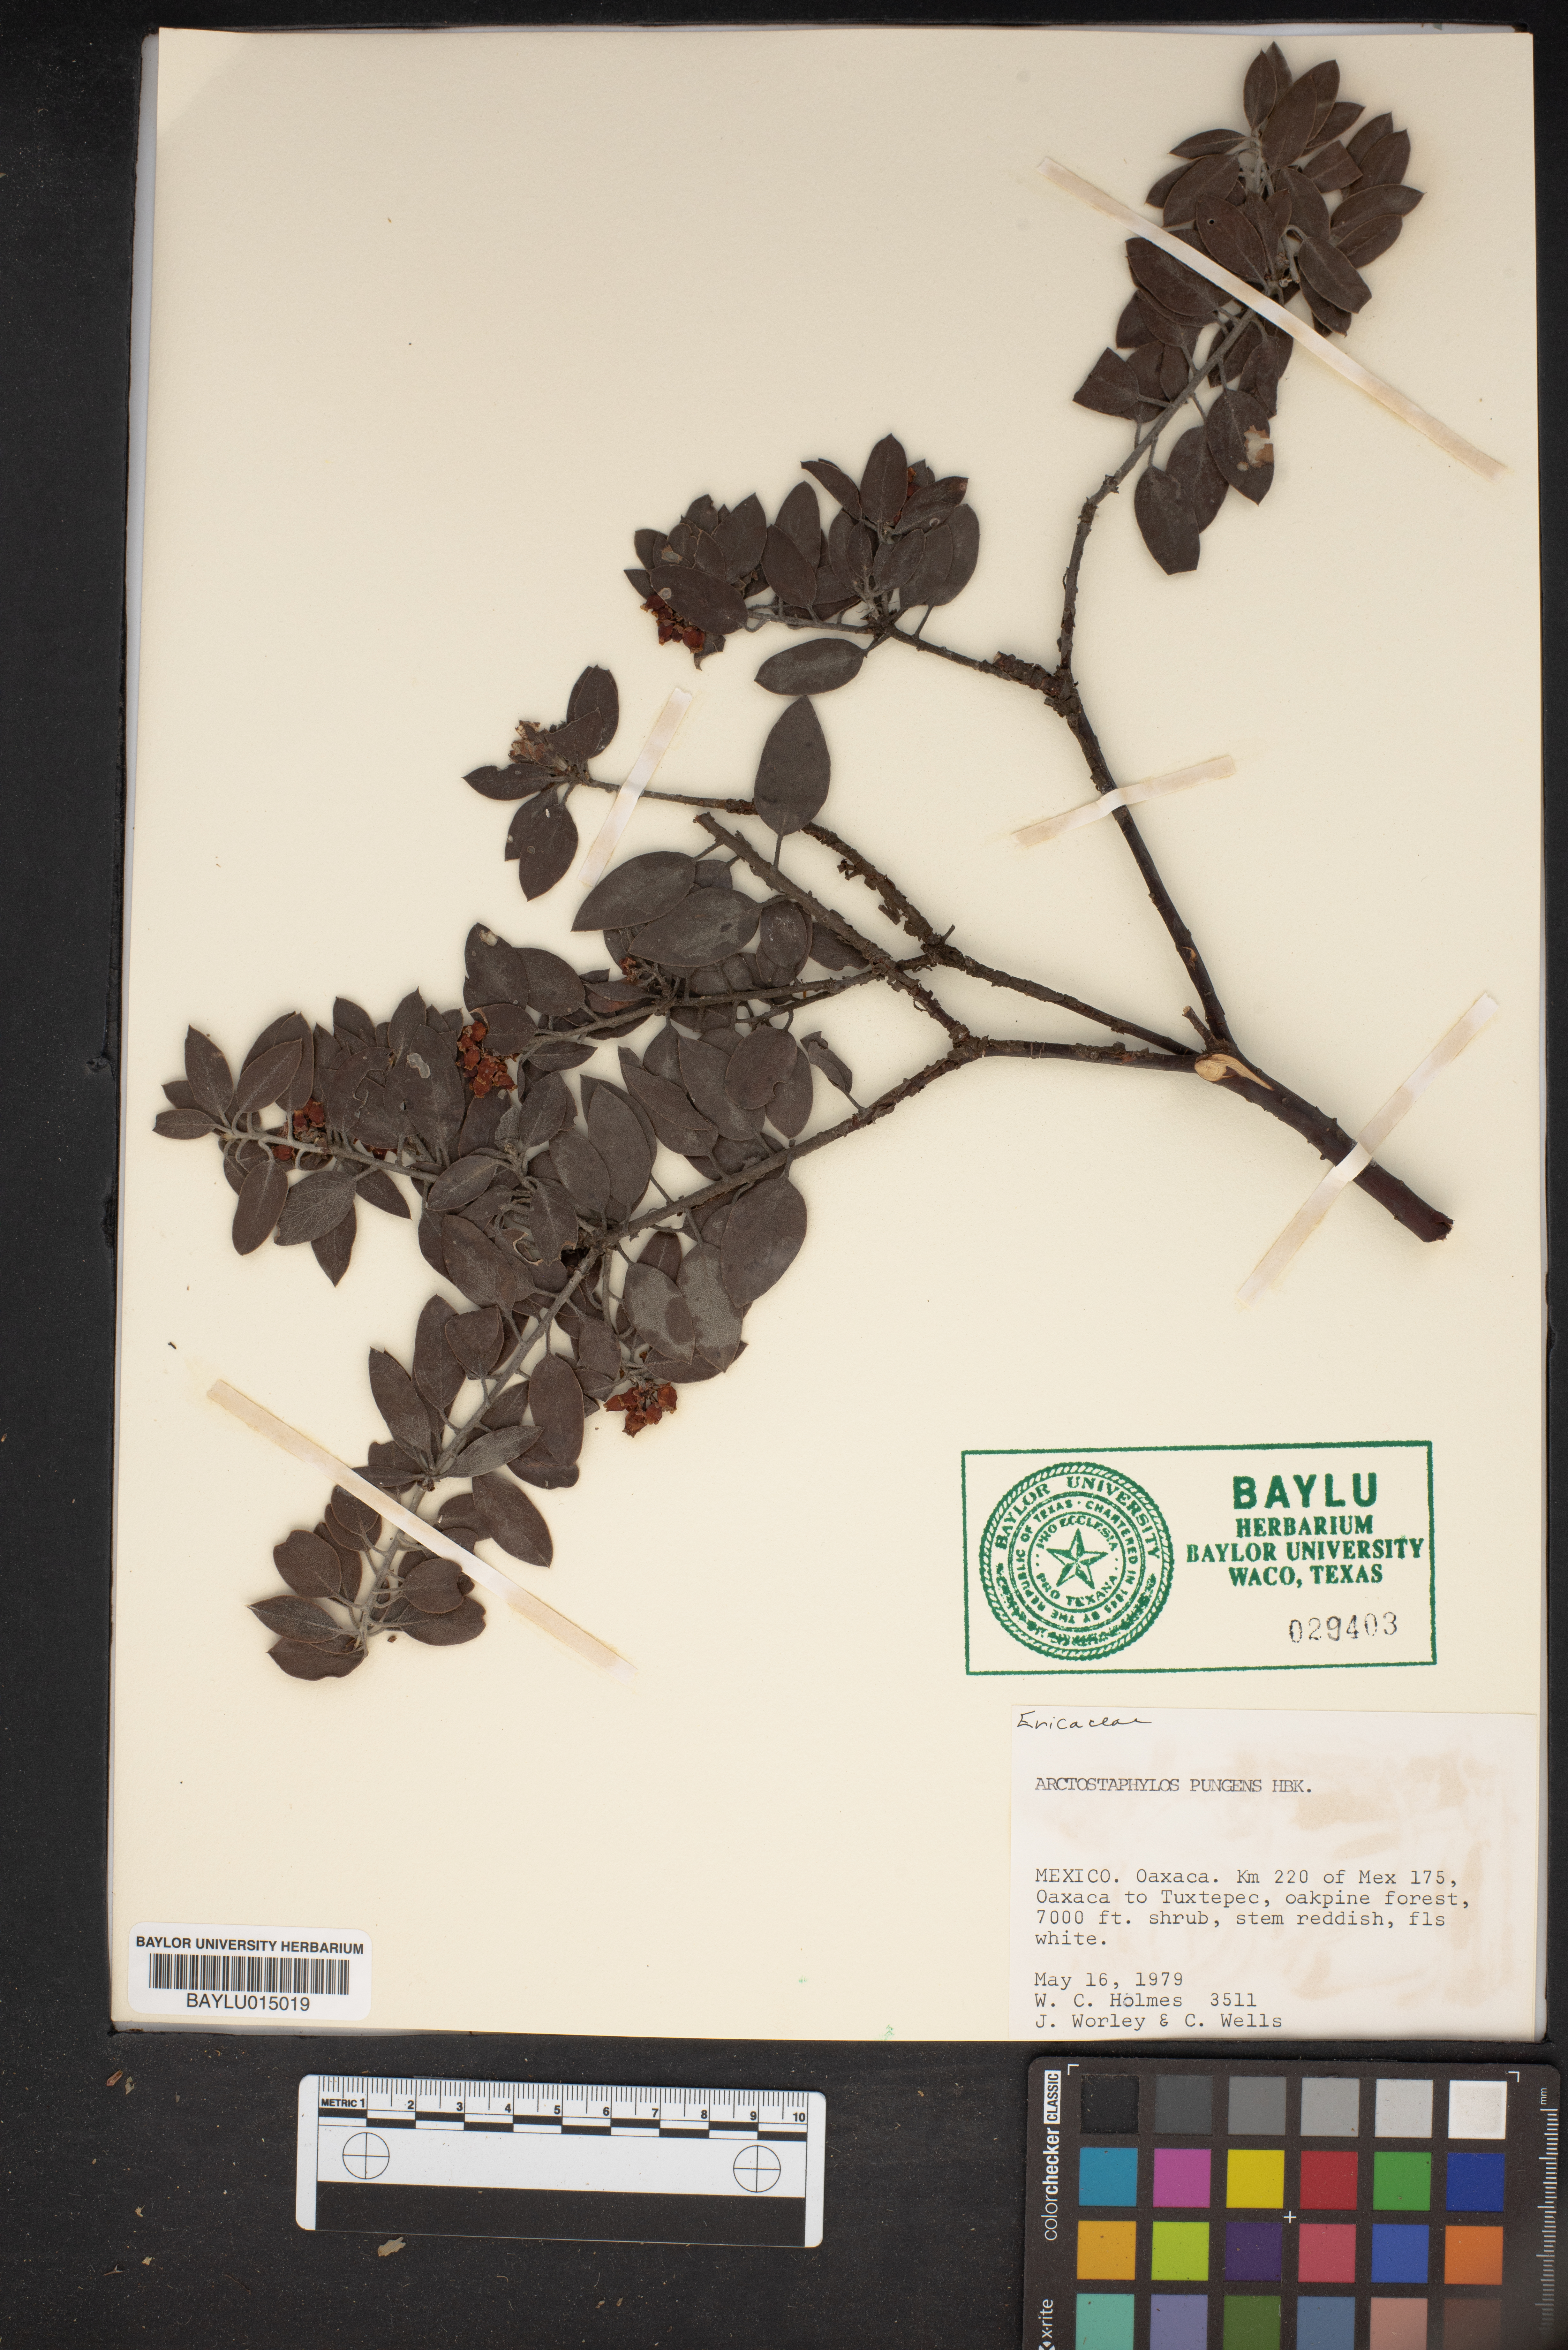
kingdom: Plantae
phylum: Tracheophyta
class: Magnoliopsida
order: Ericales
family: Ericaceae
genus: Arctostaphylos
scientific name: Arctostaphylos pungens
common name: Mexican manzanita
